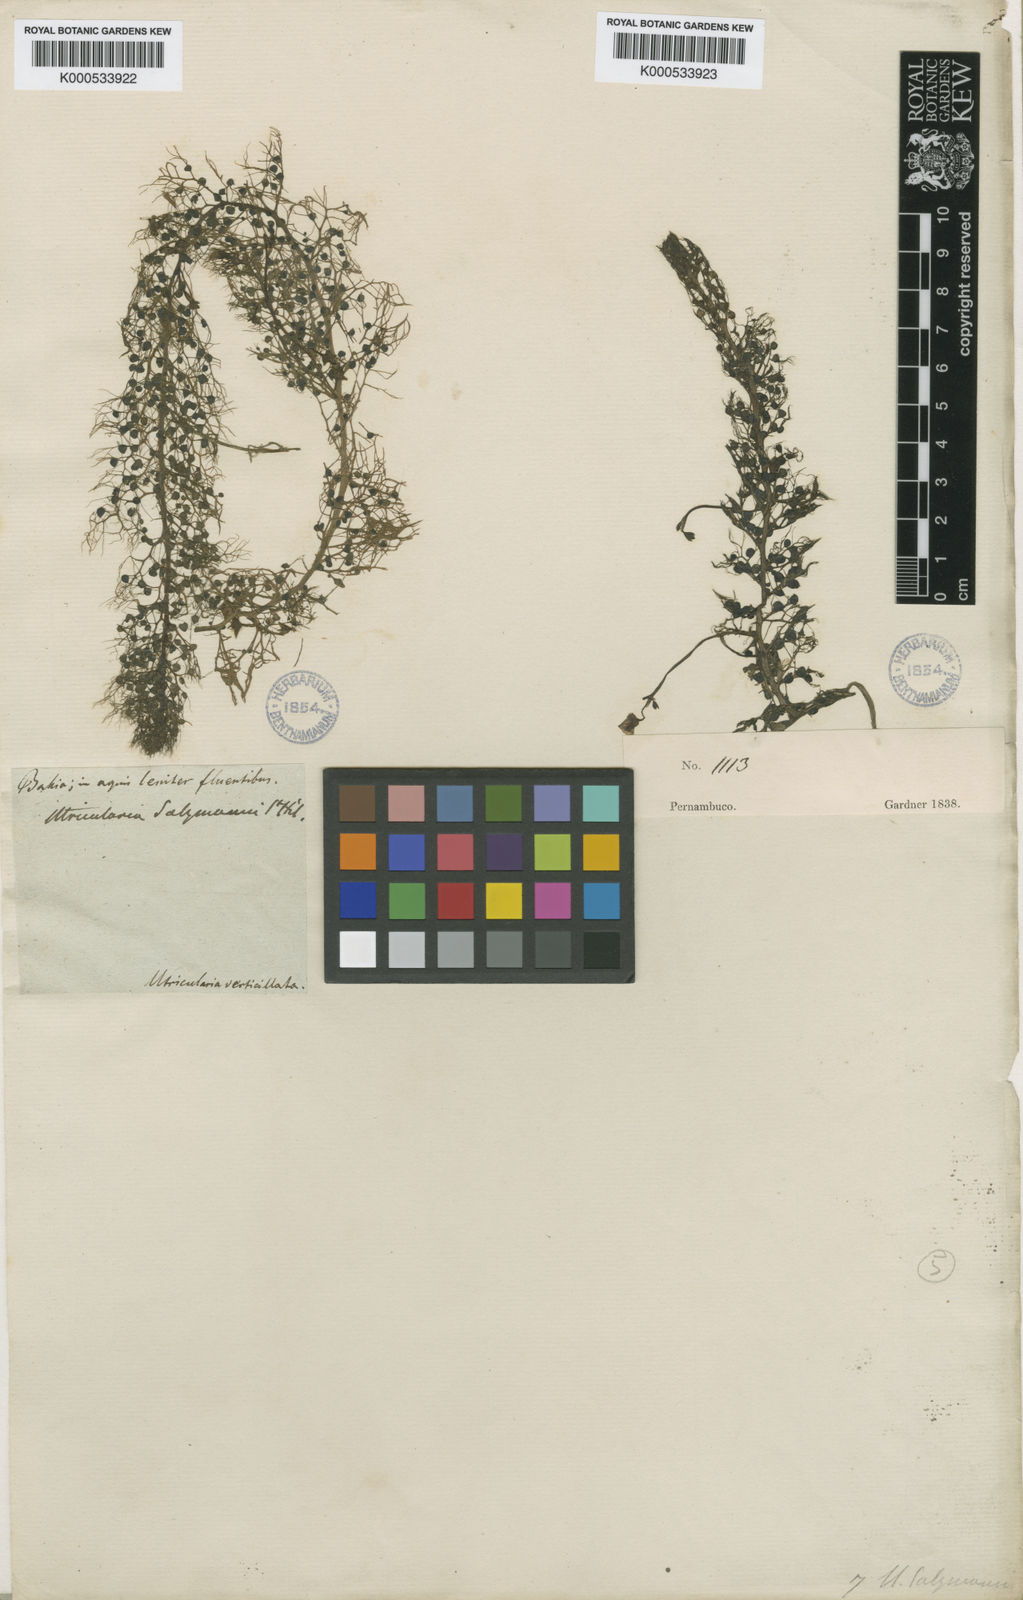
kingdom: Plantae
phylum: Tracheophyta
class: Magnoliopsida
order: Lamiales
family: Lentibulariaceae
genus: Utricularia
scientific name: Utricularia hydrocarpa
